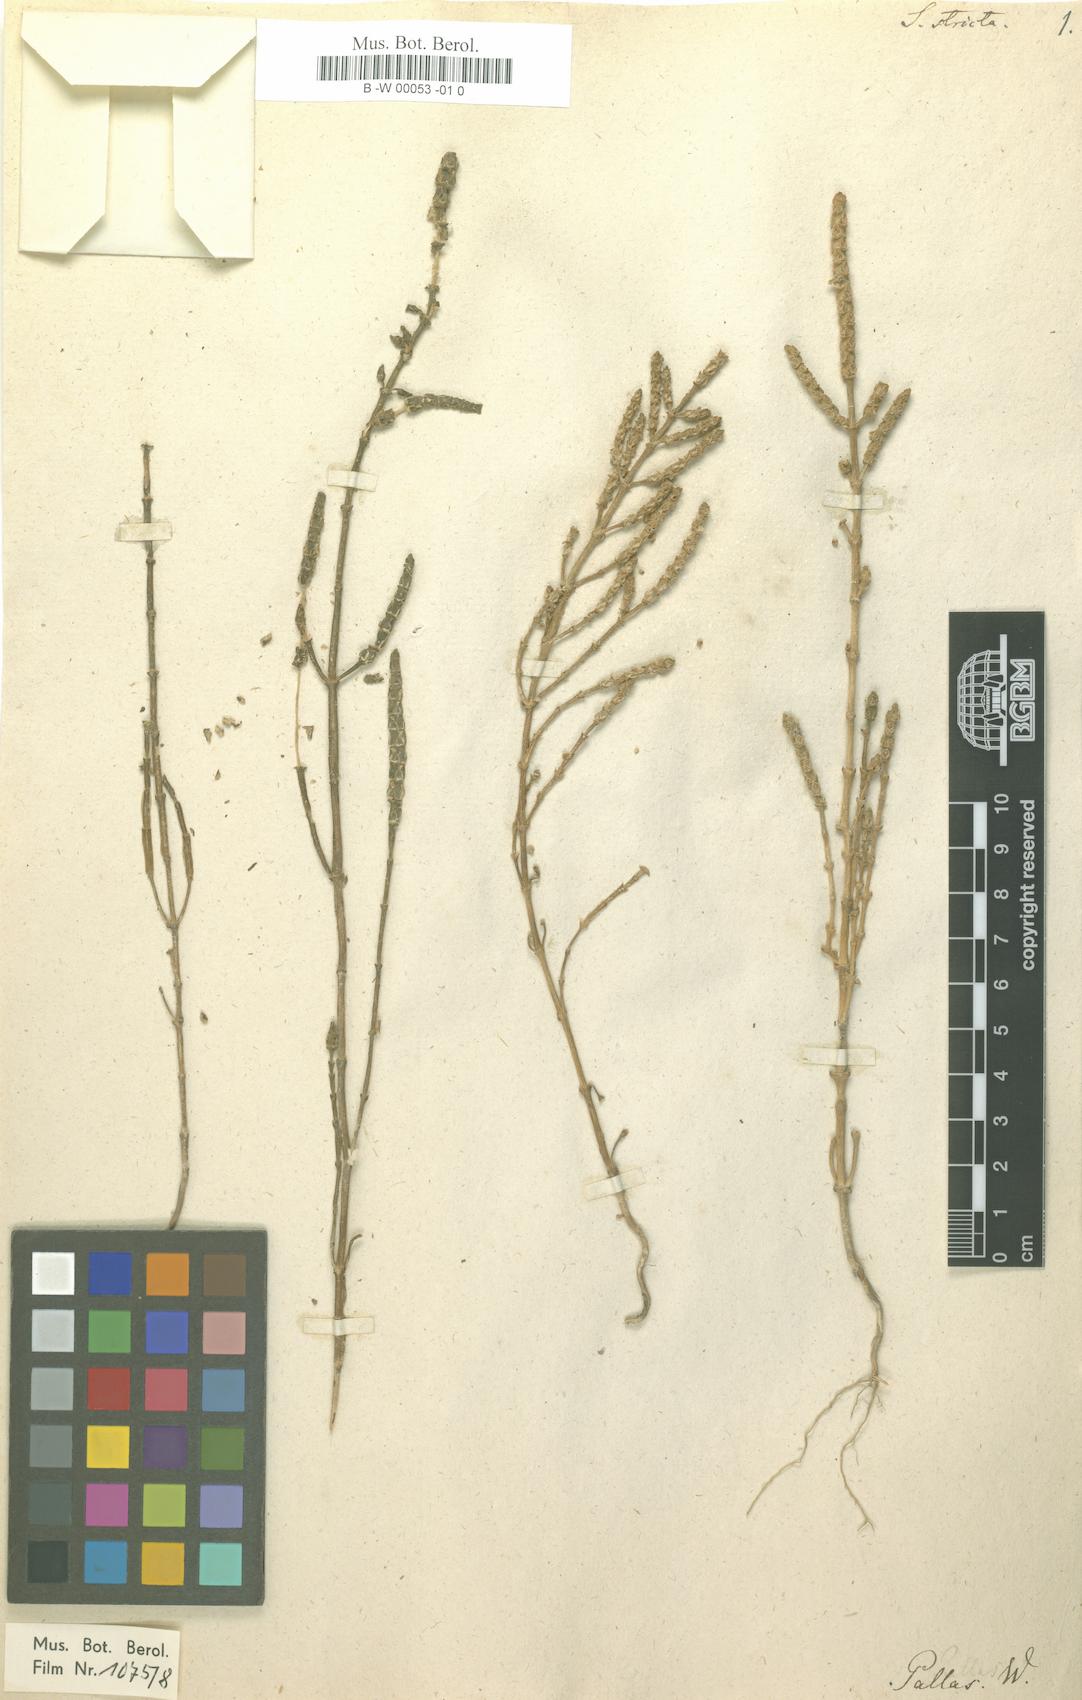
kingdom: Plantae
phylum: Tracheophyta
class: Magnoliopsida
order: Caryophyllales
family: Amaranthaceae
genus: Salicornia
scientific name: Salicornia stricta
